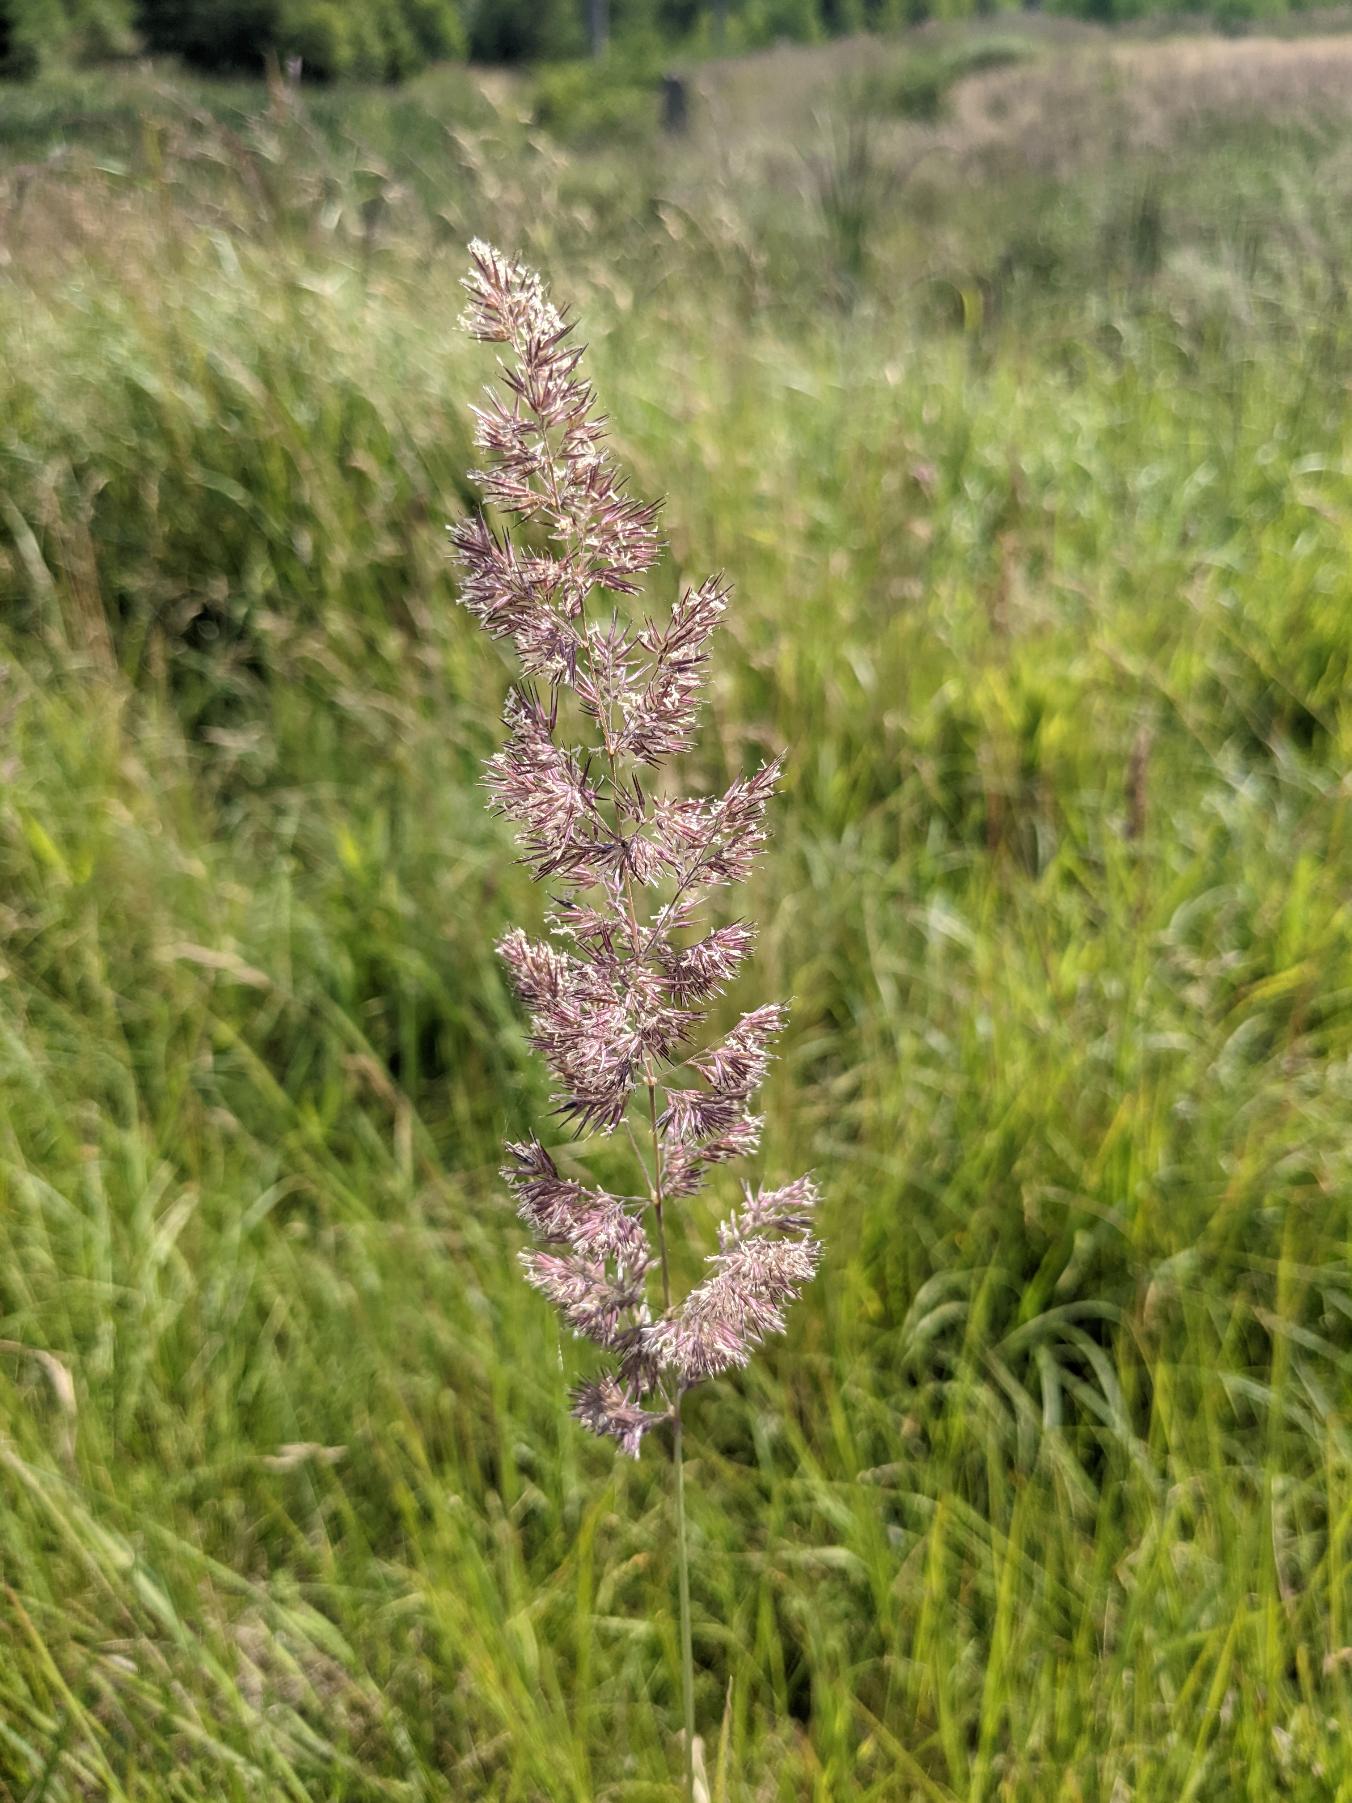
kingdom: Plantae
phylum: Tracheophyta
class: Liliopsida
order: Poales
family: Poaceae
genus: Calamagrostis
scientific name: Calamagrostis epigejos
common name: Bjerg-rørhvene
